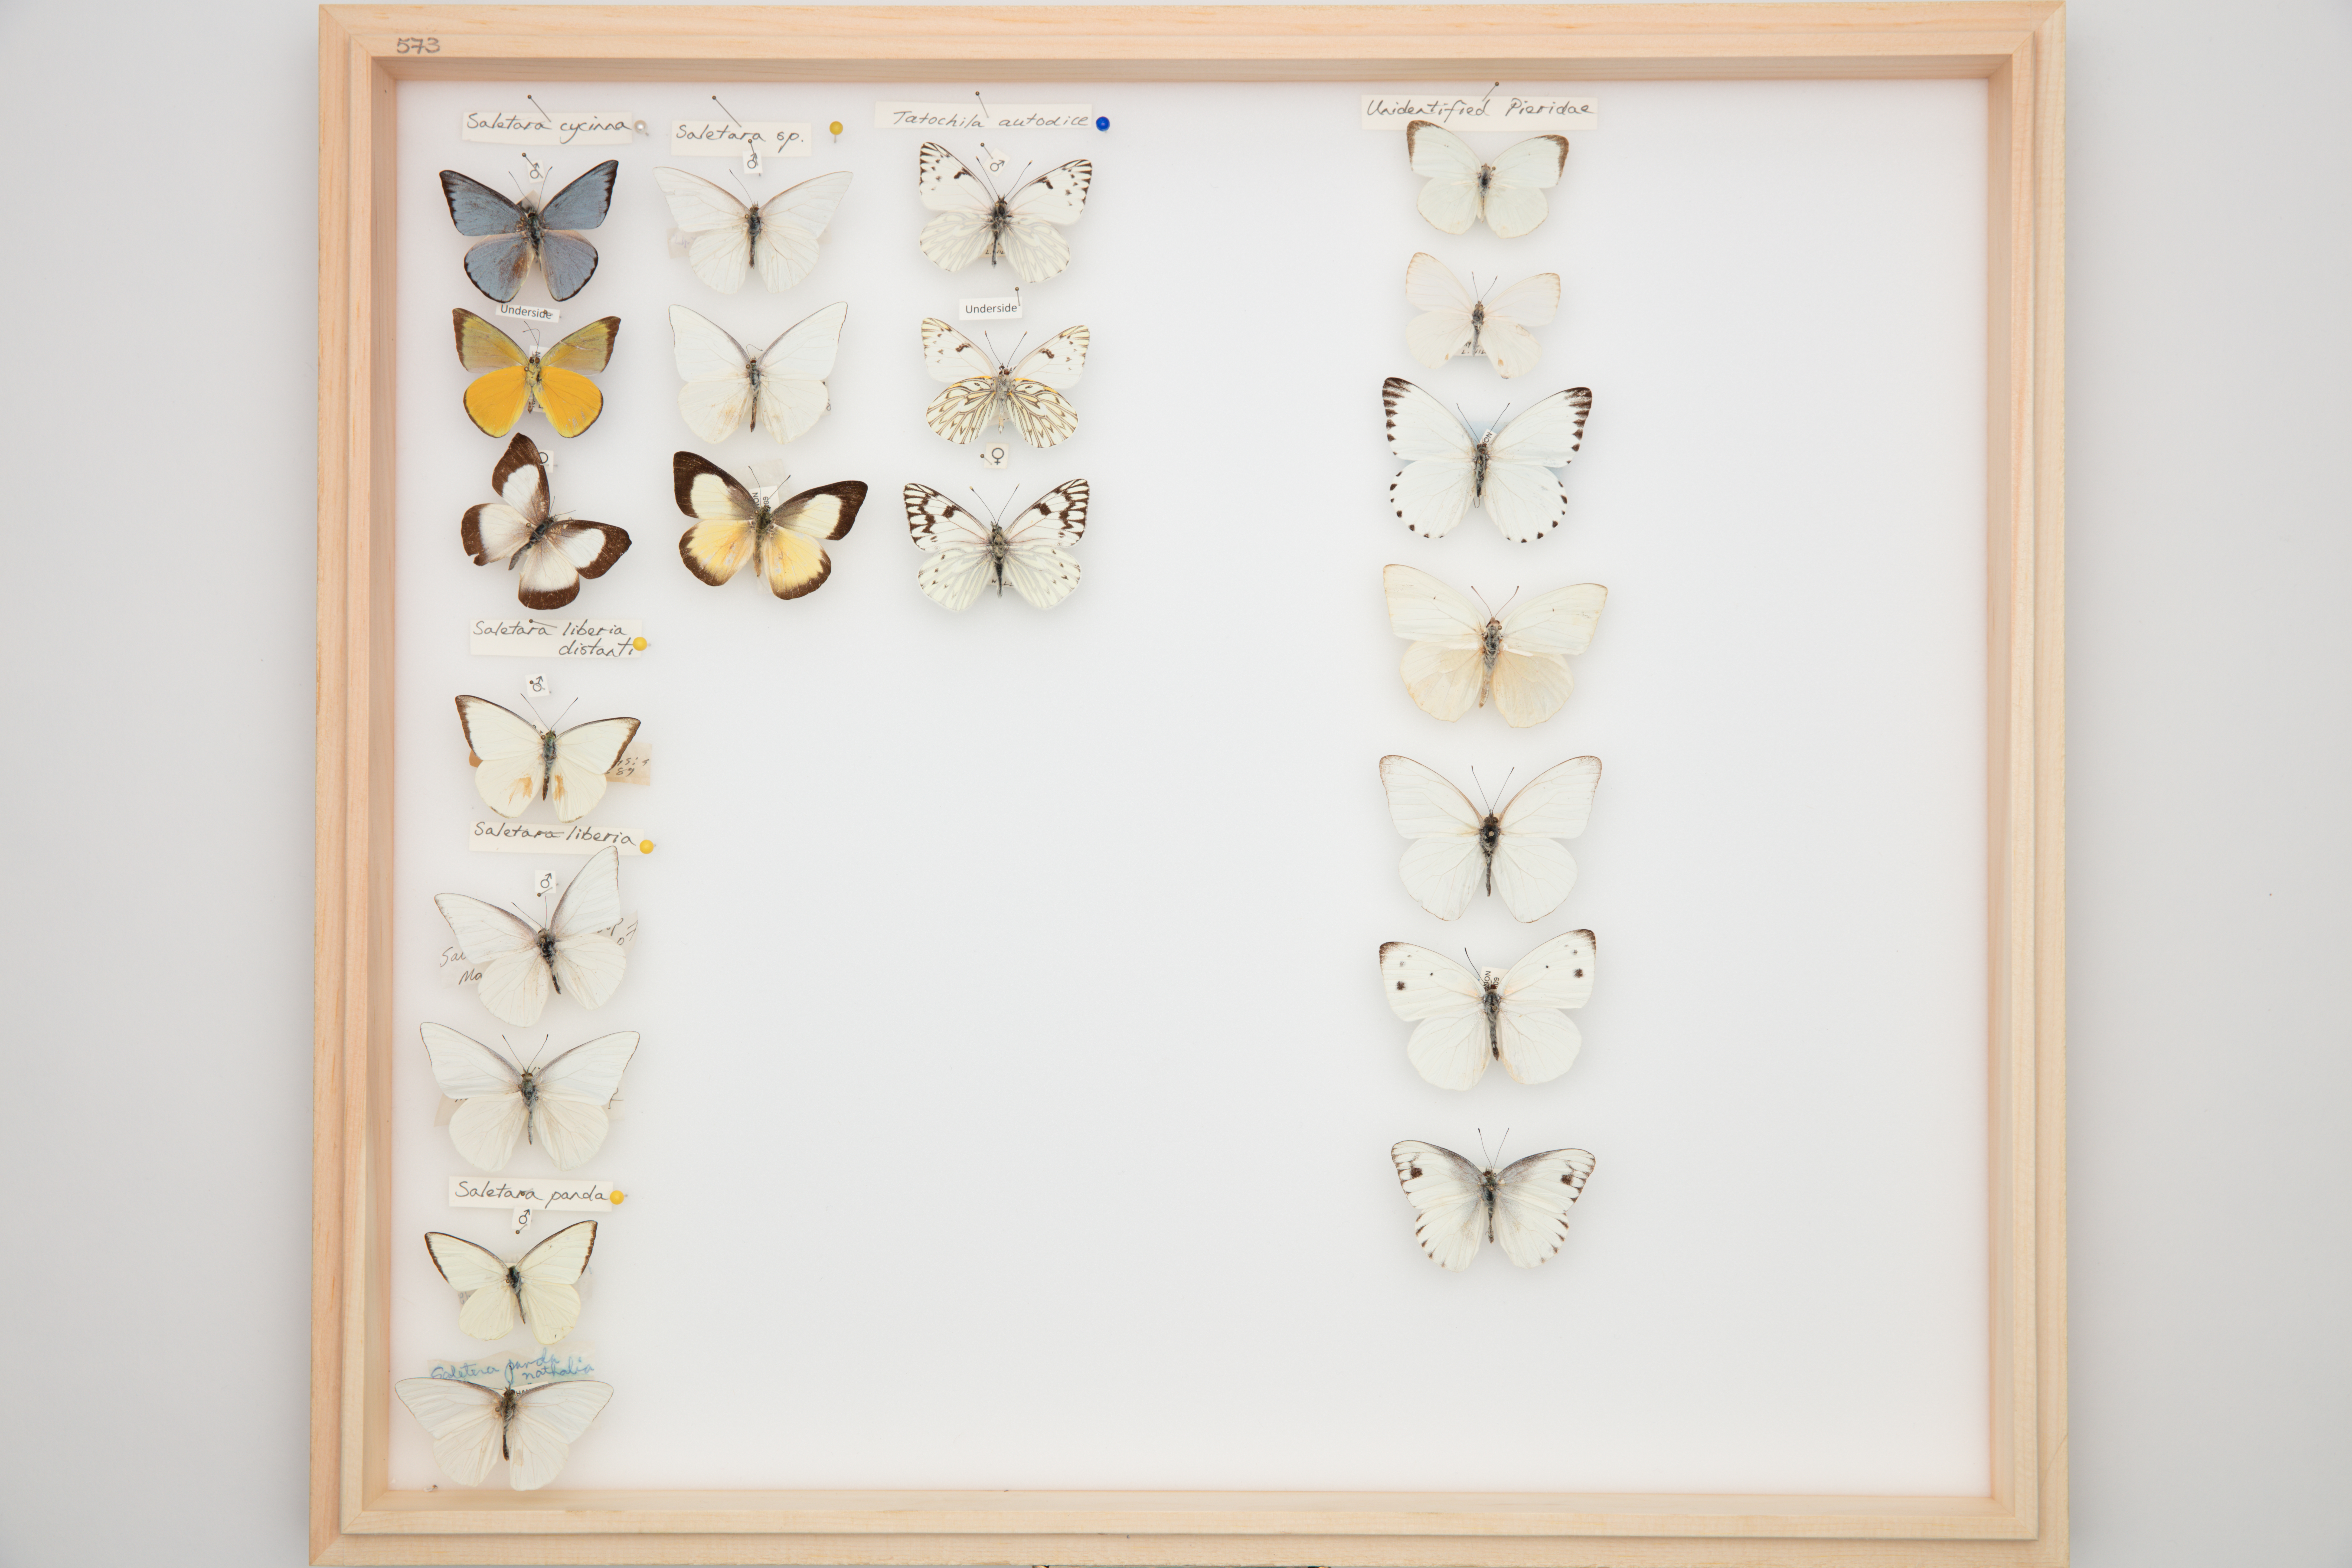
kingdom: Animalia
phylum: Arthropoda
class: Insecta
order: Lepidoptera
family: Pieridae
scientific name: Pieridae
